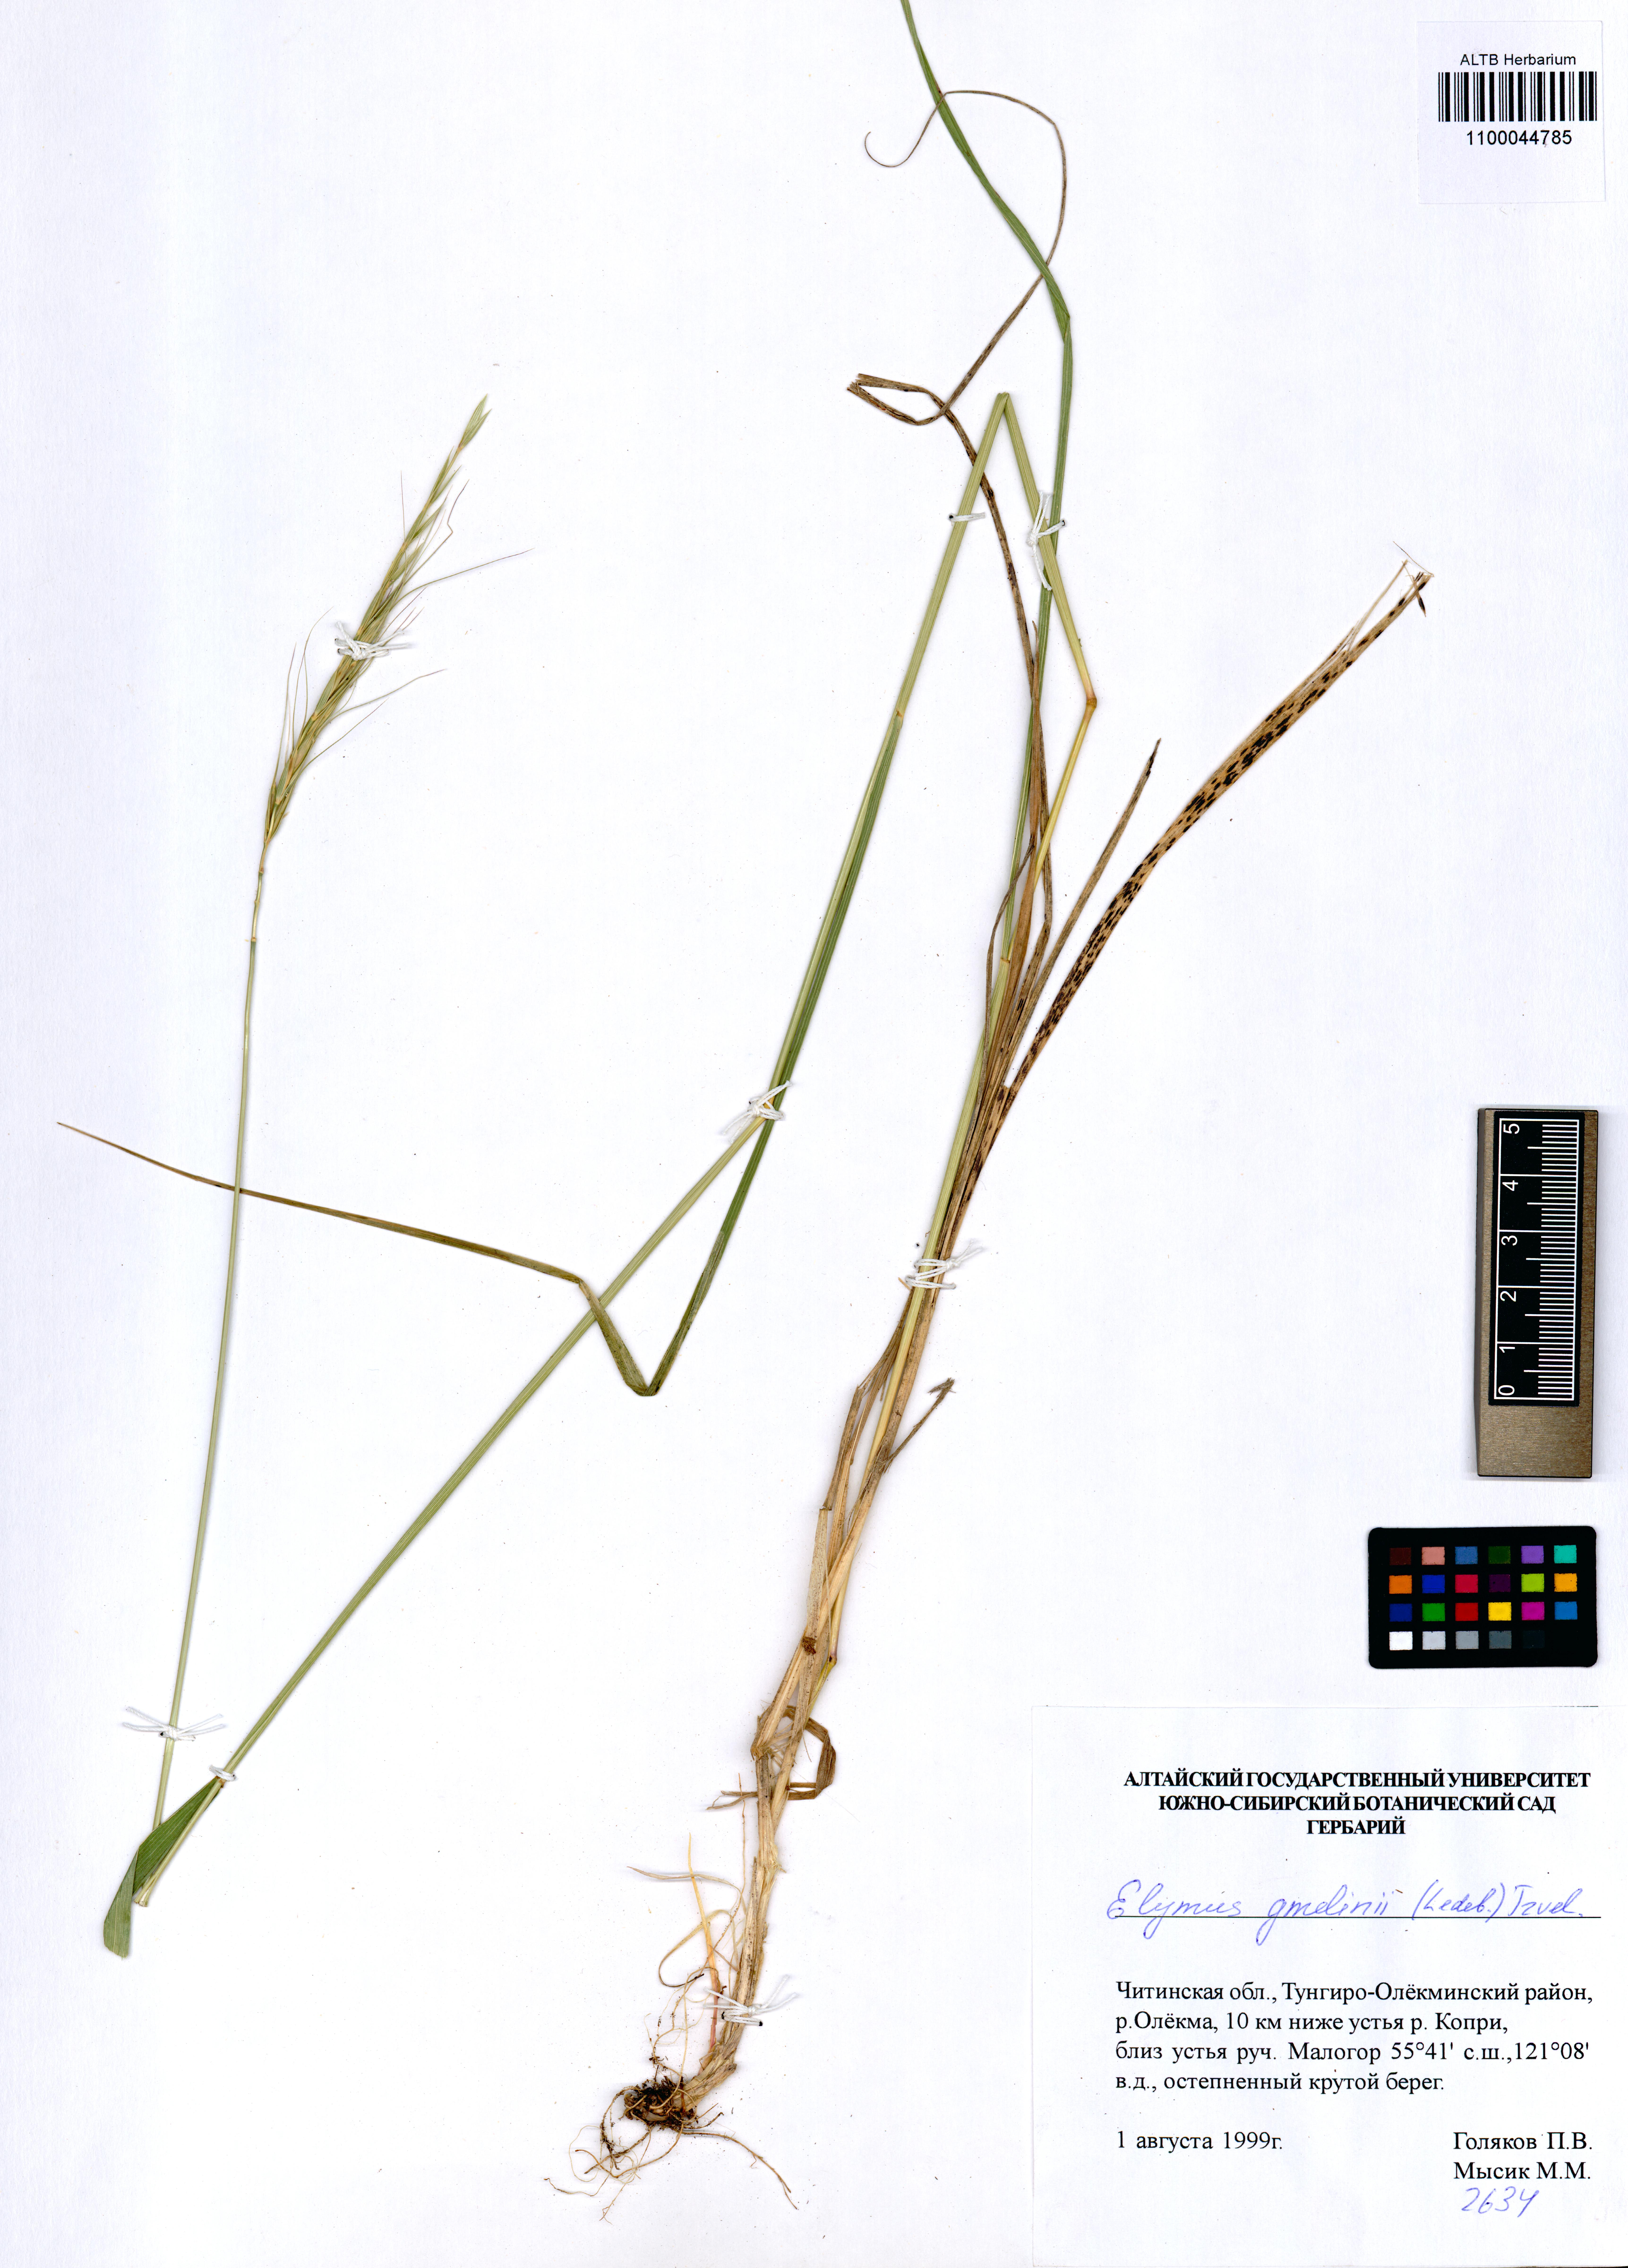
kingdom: Plantae
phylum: Tracheophyta
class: Liliopsida
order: Poales
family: Poaceae
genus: Elymus
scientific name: Elymus gmelinii
